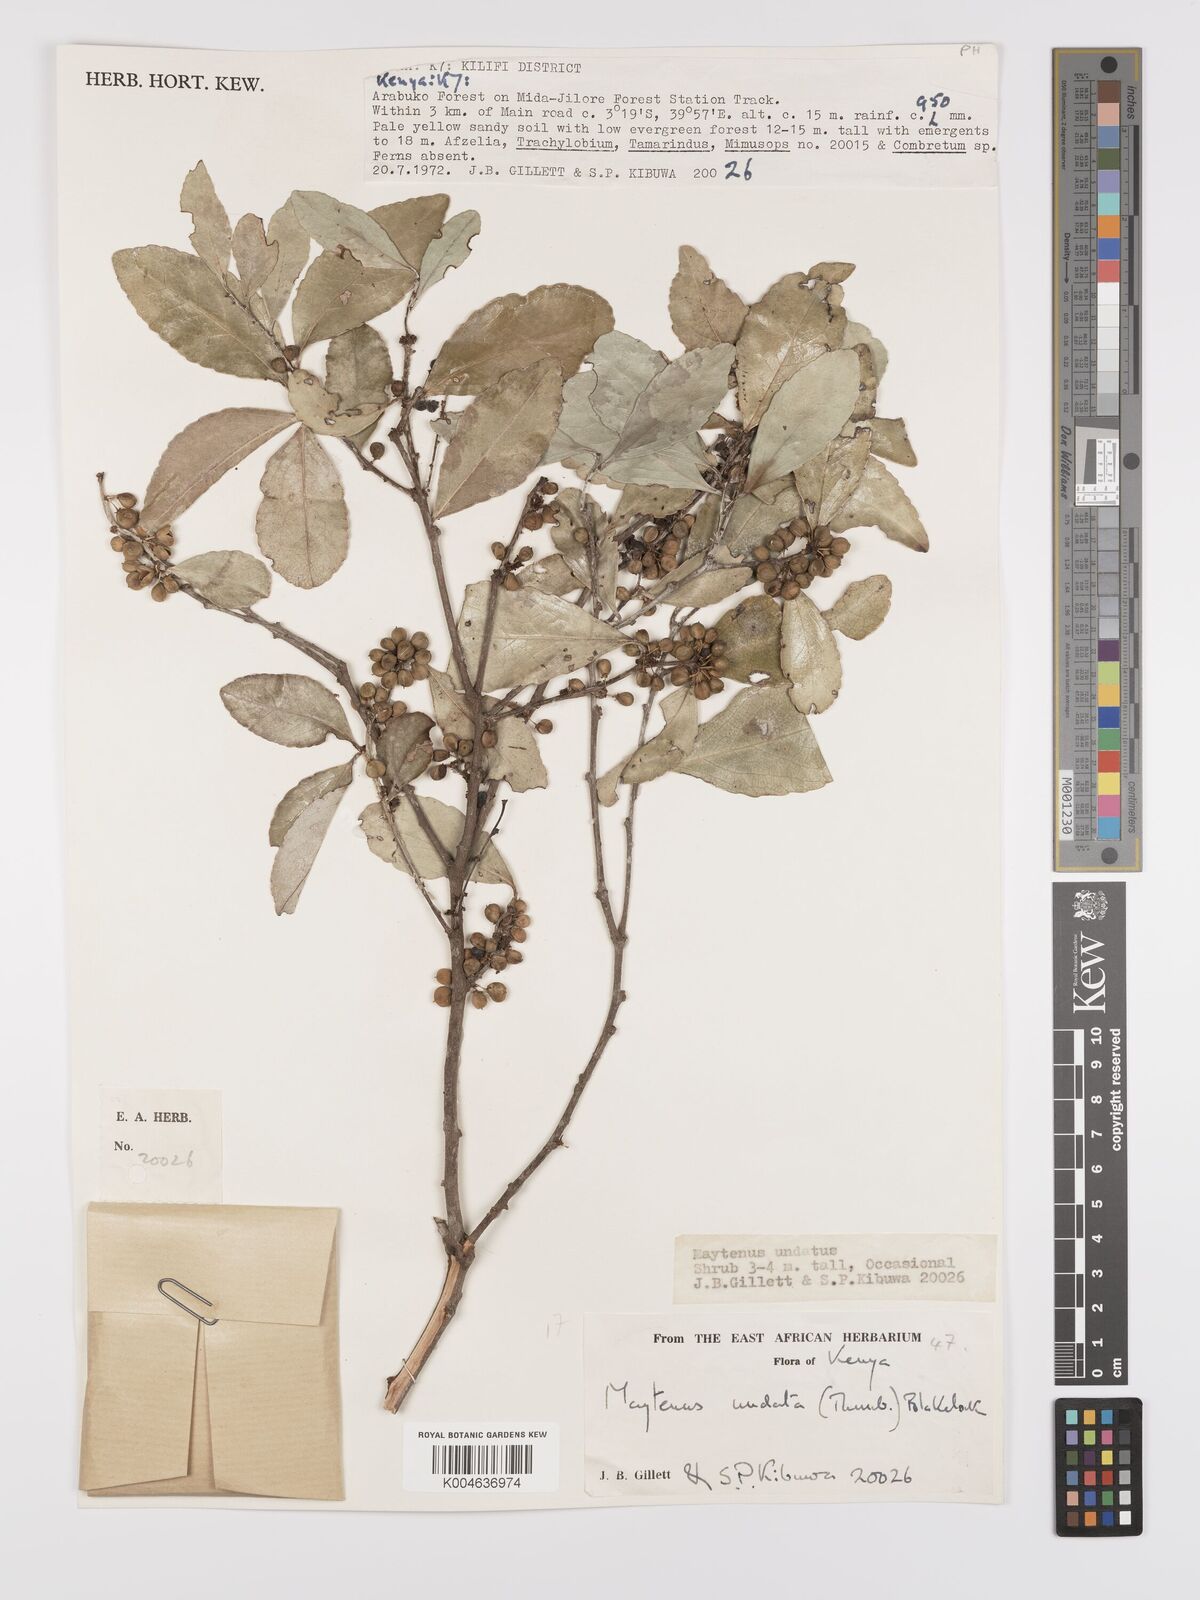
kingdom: Plantae
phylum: Tracheophyta
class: Magnoliopsida
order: Celastrales
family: Celastraceae
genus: Gymnosporia
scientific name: Gymnosporia undata
